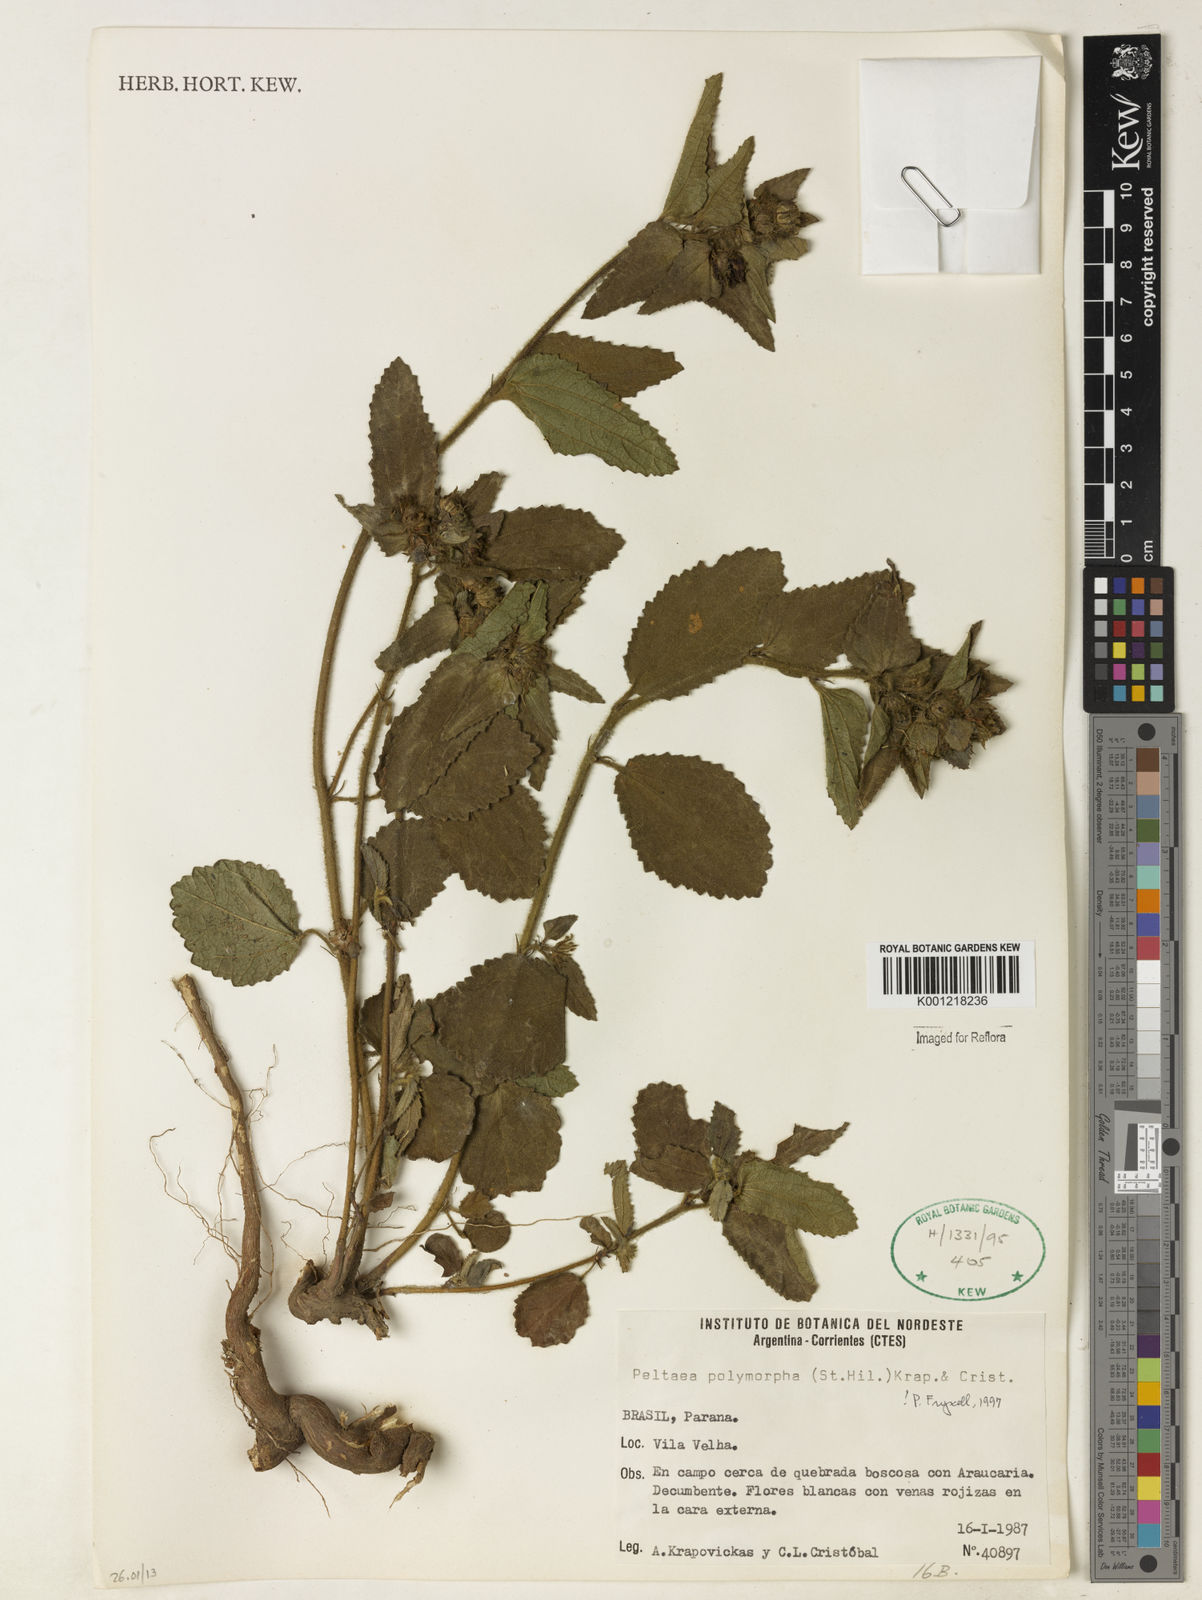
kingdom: Plantae
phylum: Tracheophyta
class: Magnoliopsida
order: Malvales
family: Malvaceae
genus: Peltaea
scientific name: Peltaea
